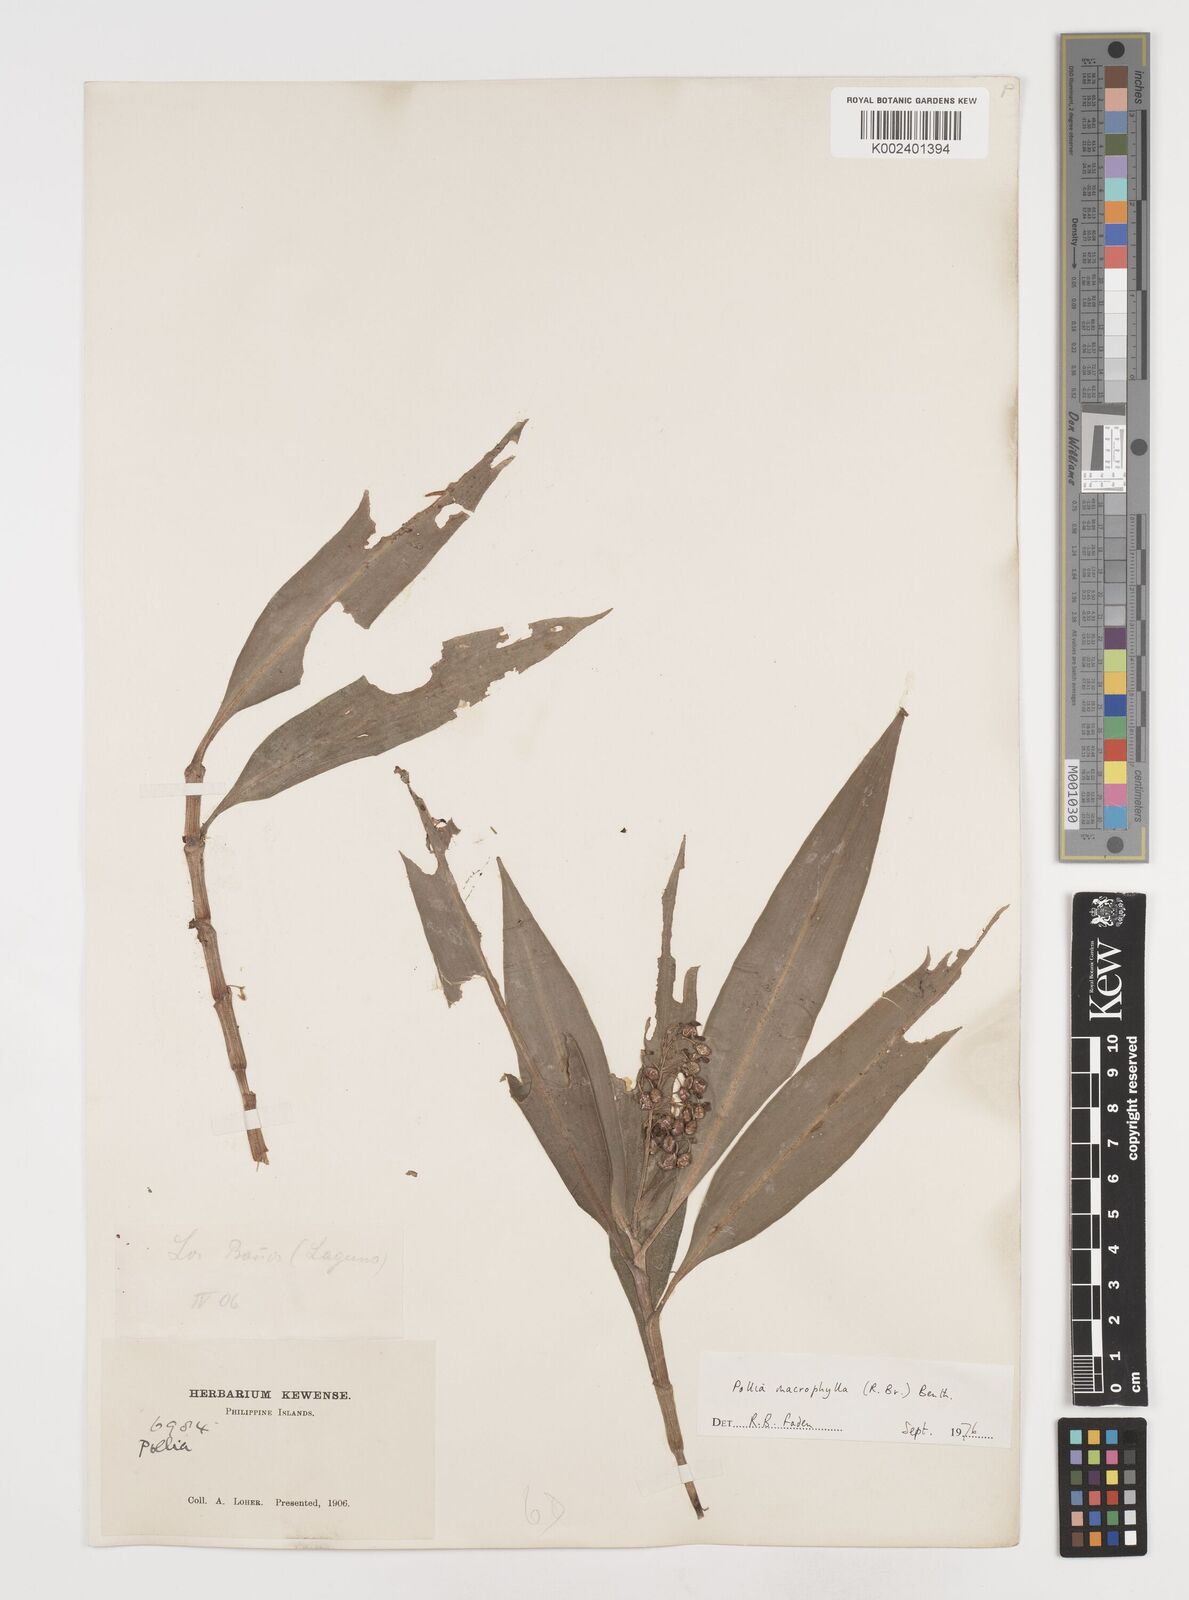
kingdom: Plantae
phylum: Tracheophyta
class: Liliopsida
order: Commelinales
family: Commelinaceae
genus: Pollia
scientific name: Pollia macrophylla
